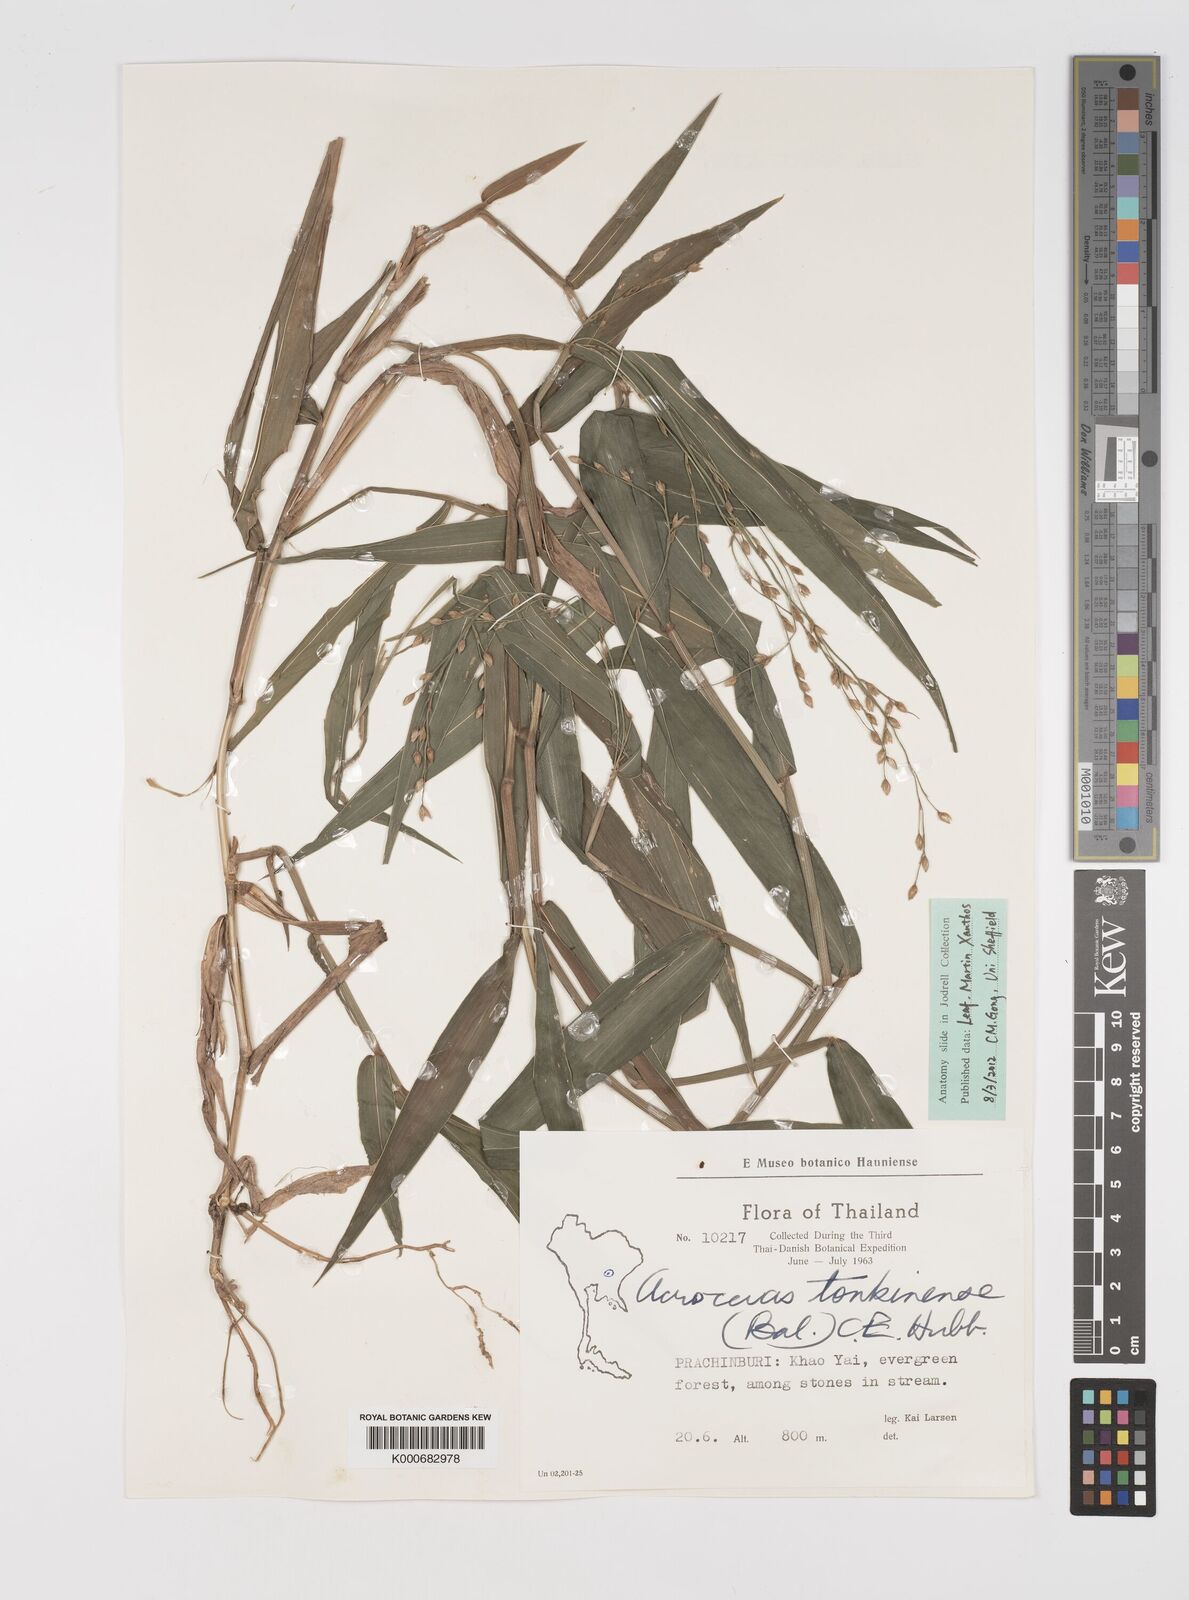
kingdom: Plantae
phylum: Tracheophyta
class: Liliopsida
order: Poales
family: Poaceae
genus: Acroceras
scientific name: Acroceras
